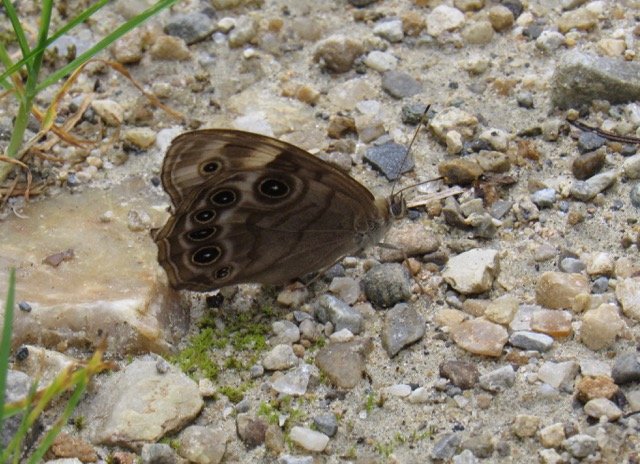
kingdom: Animalia
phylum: Arthropoda
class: Insecta
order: Lepidoptera
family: Nymphalidae
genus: Lethe
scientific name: Lethe anthedon
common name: Northern Pearly-Eye
